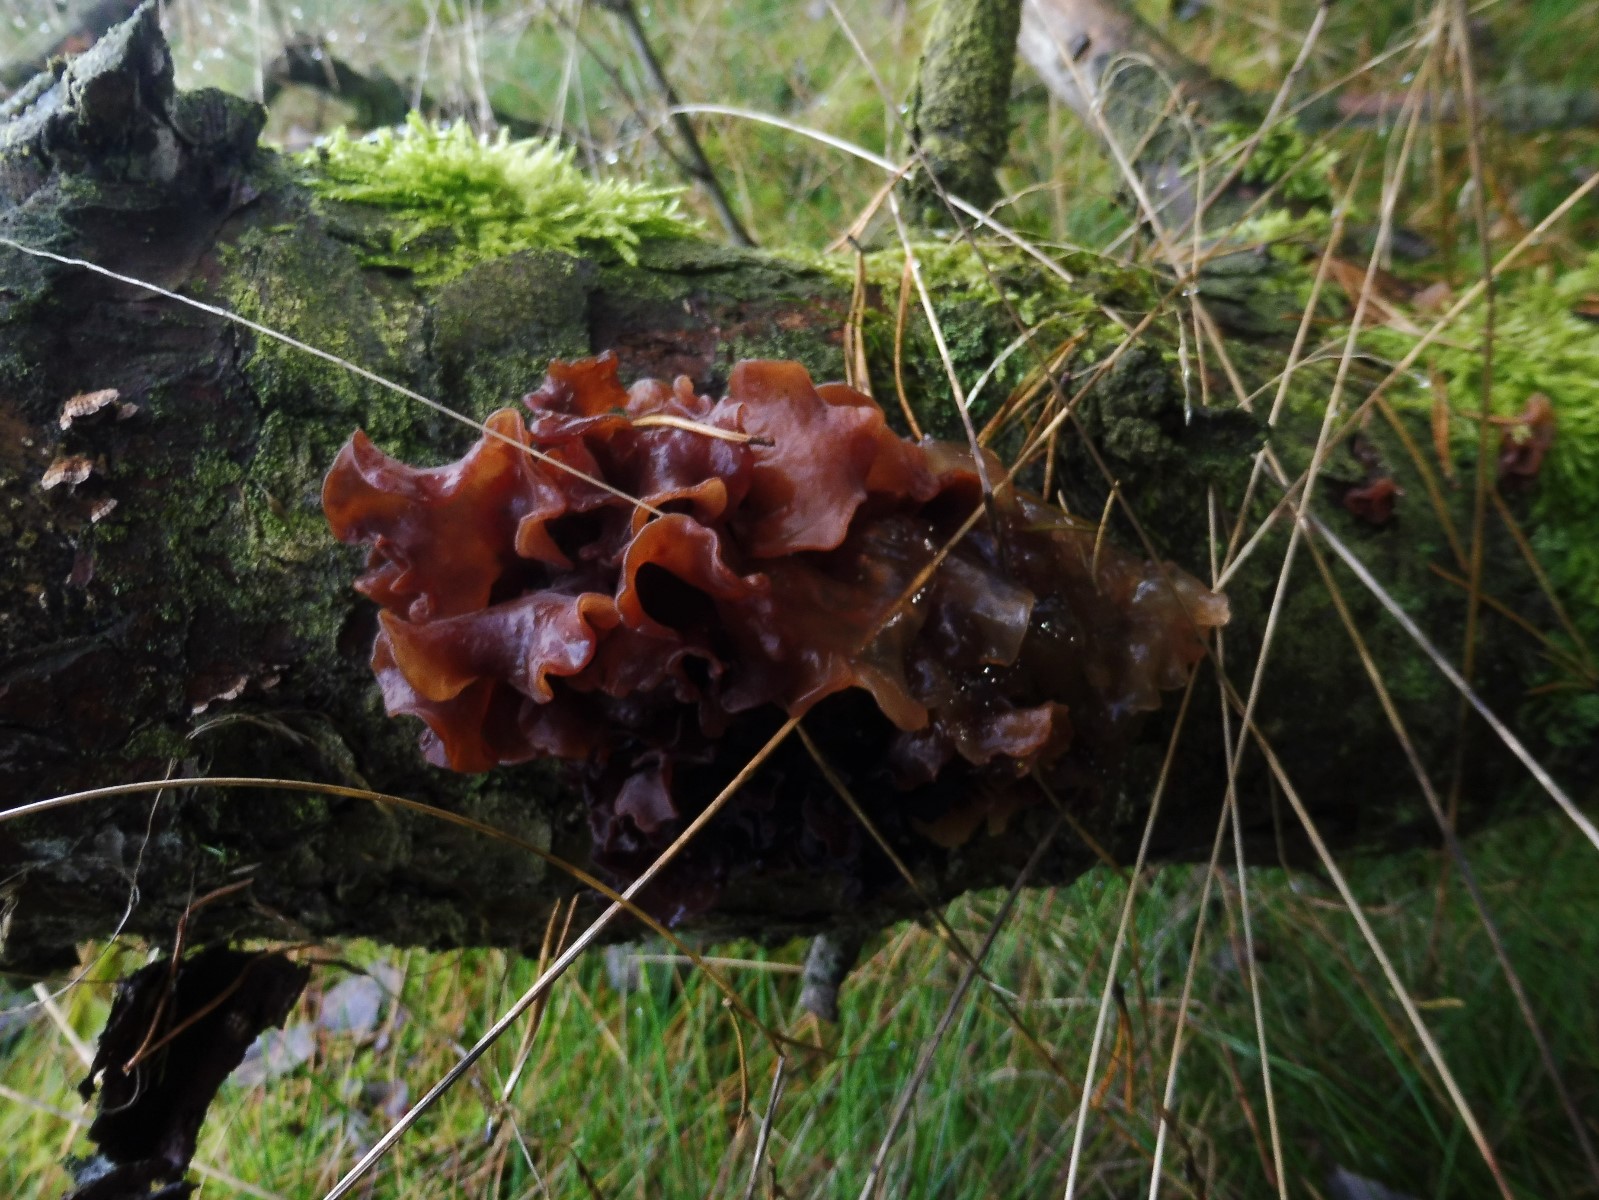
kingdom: Fungi
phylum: Basidiomycota
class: Tremellomycetes
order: Tremellales
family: Tremellaceae
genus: Phaeotremella
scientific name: Phaeotremella foliacea
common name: brun bævresvamp
